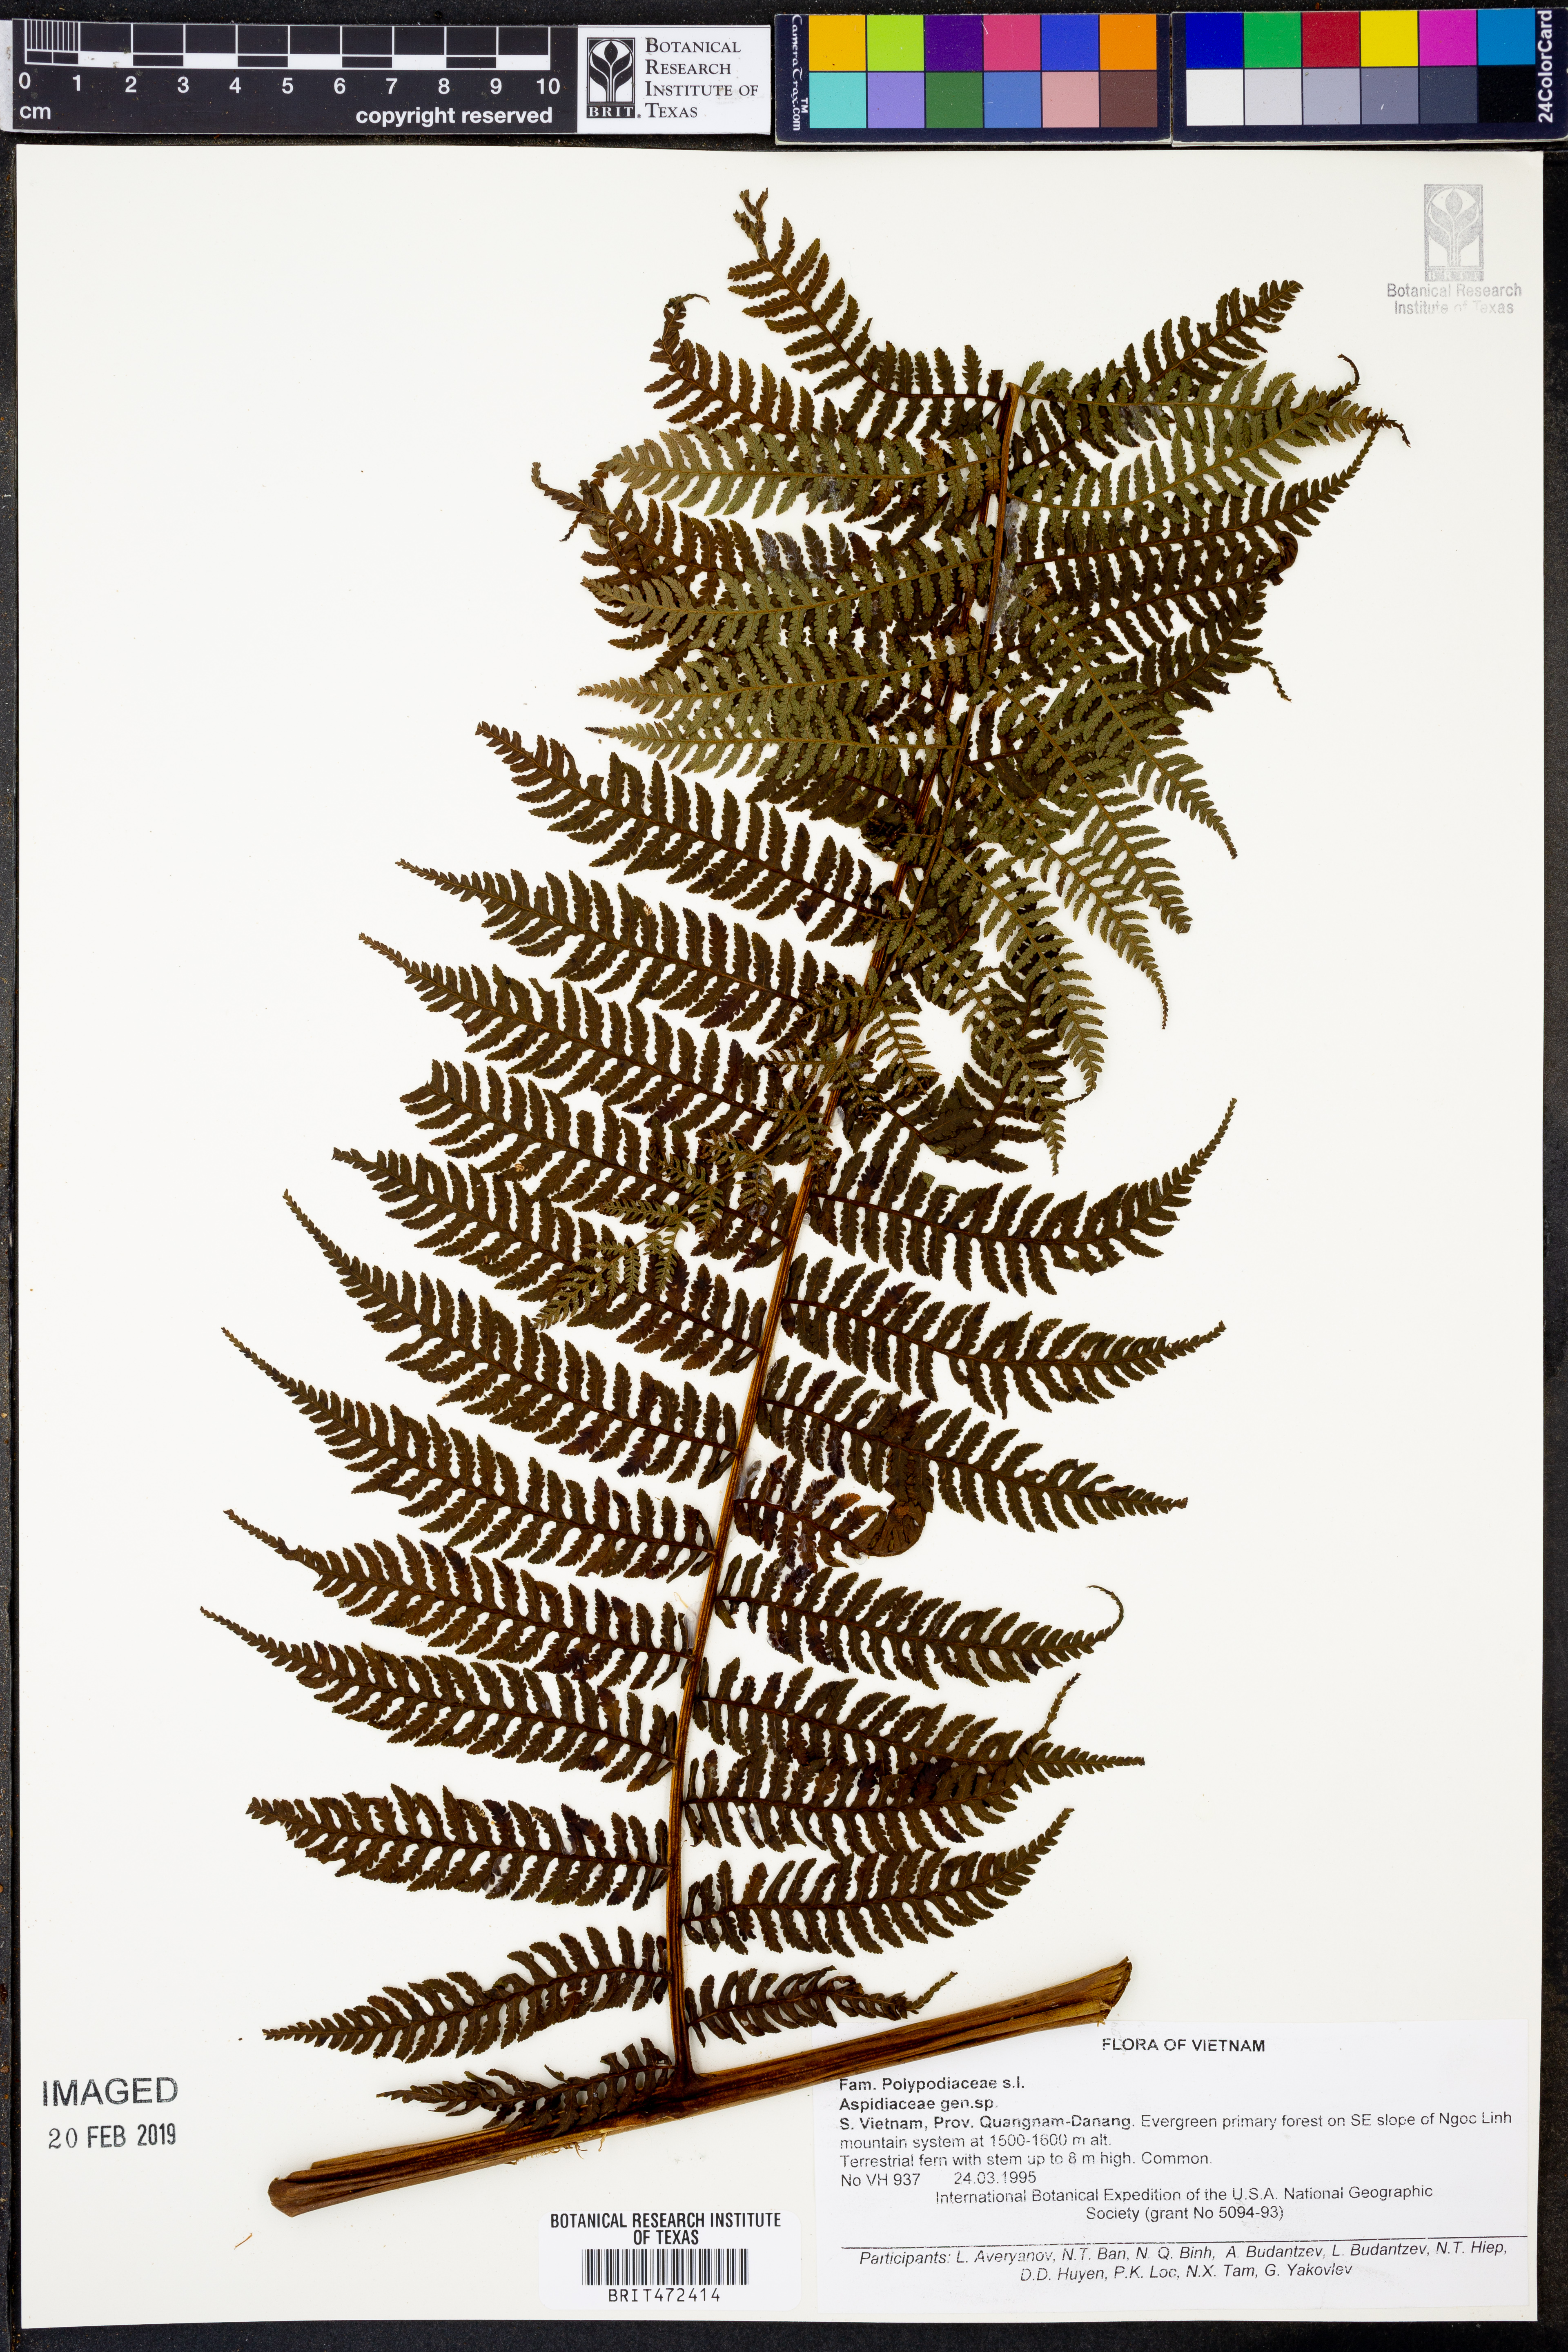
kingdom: Plantae
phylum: Tracheophyta
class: Polypodiopsida
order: Polypodiales
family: Aspidiaceae
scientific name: Aspidiaceae
